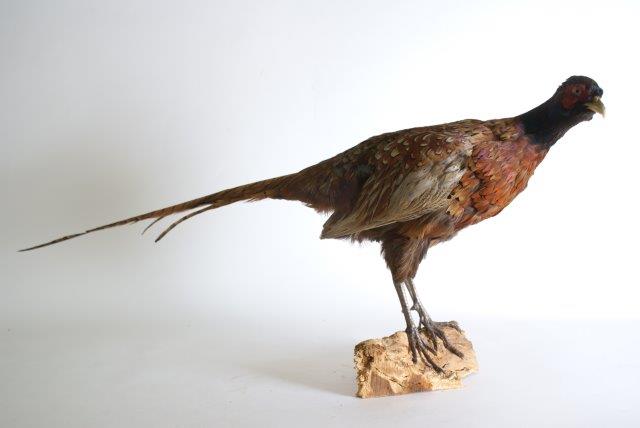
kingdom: Animalia
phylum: Chordata
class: Aves
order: Galliformes
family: Phasianidae
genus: Phasianus
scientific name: Phasianus colchicus
